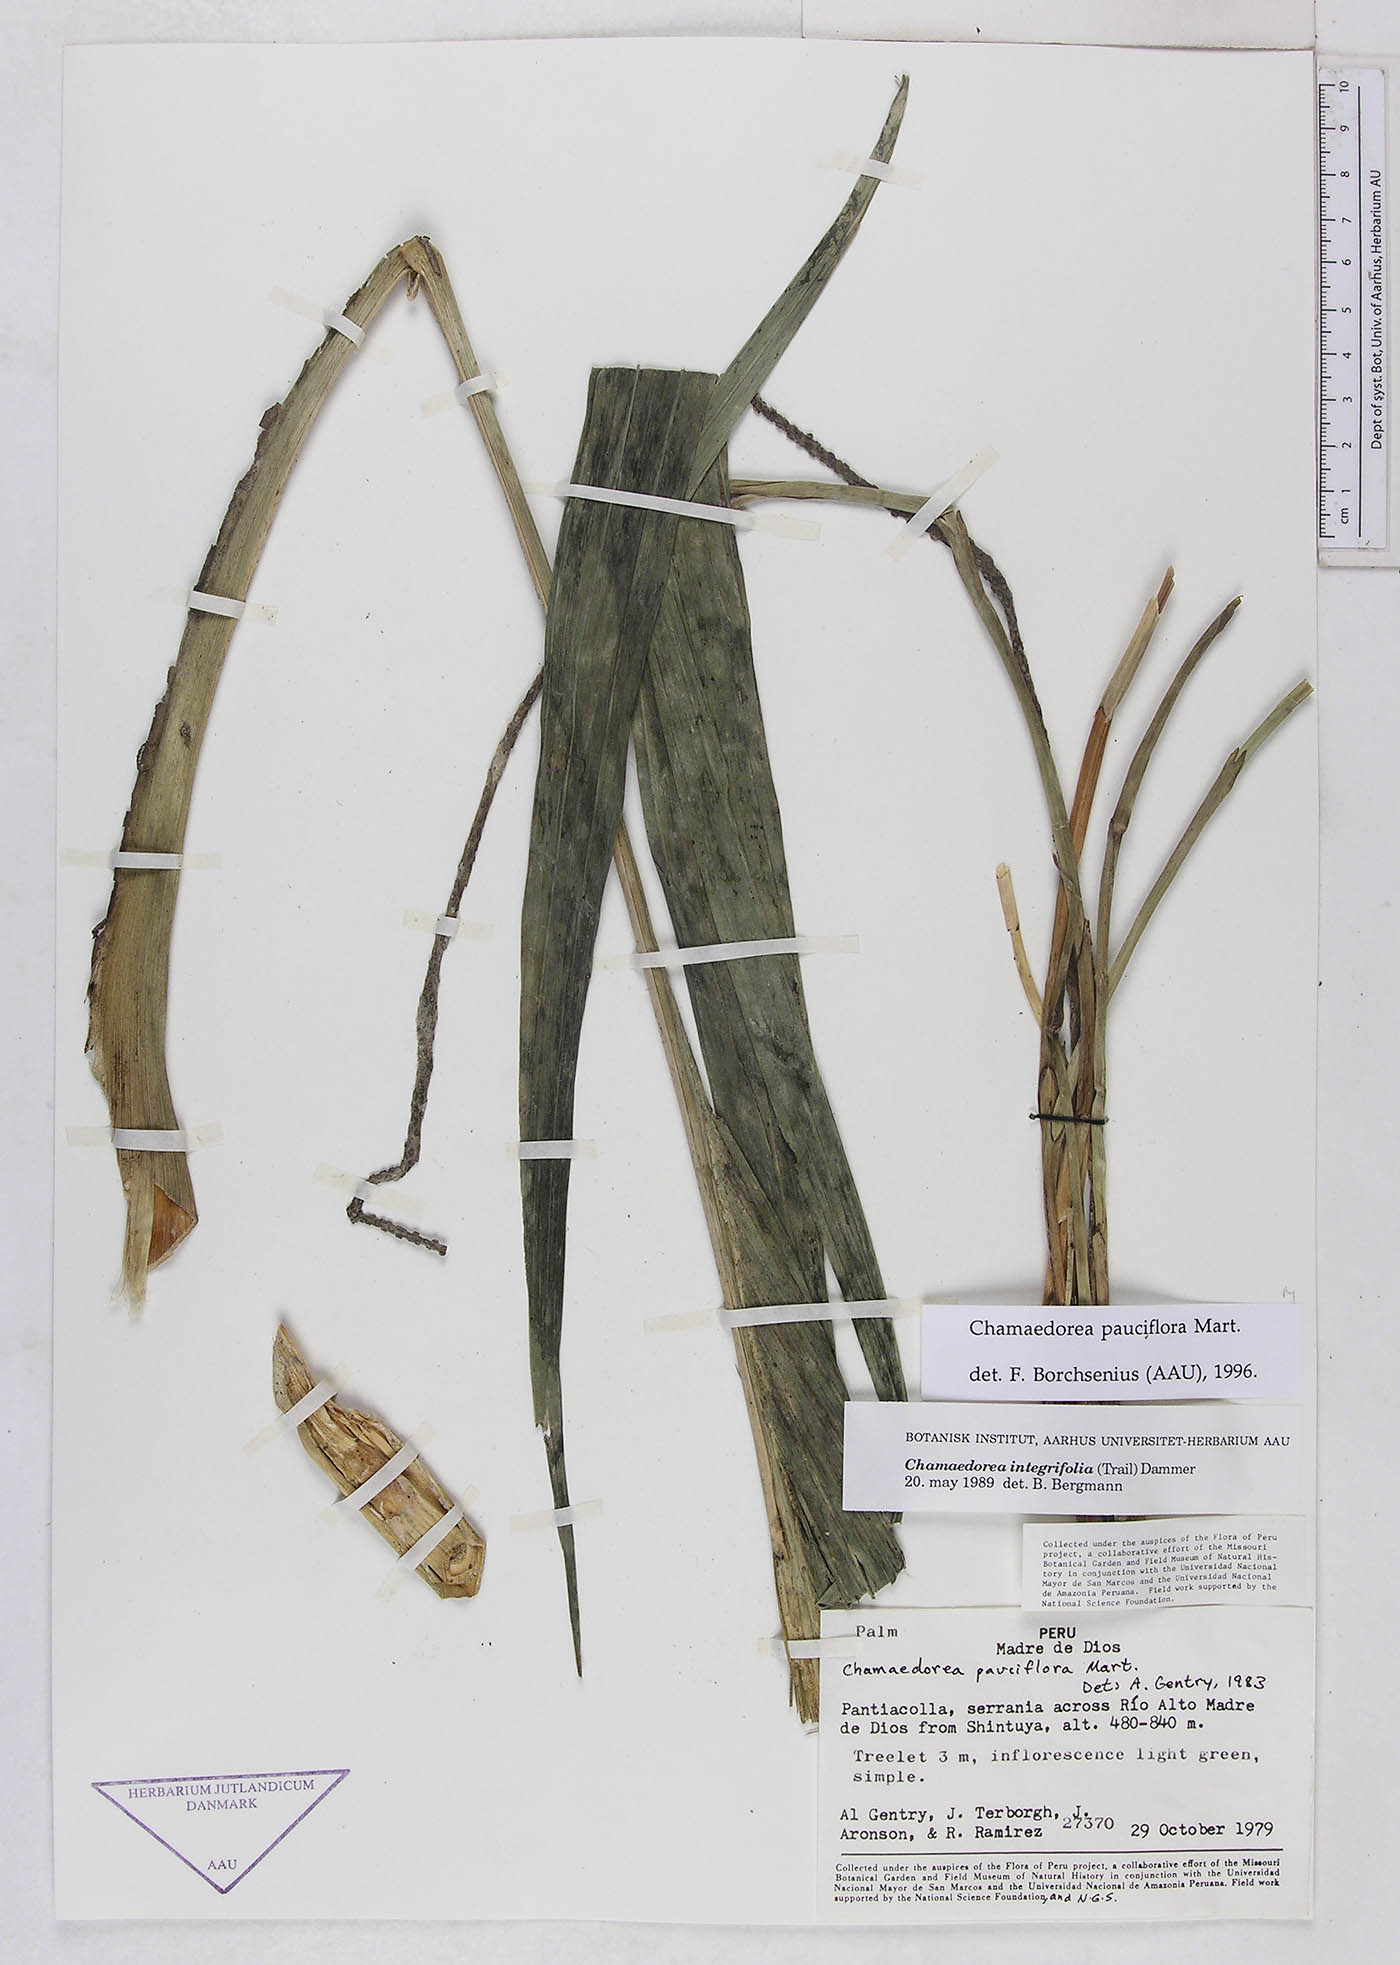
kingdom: Plantae
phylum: Tracheophyta
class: Liliopsida
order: Arecales
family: Arecaceae
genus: Chamaedorea
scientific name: Chamaedorea pauciflora
